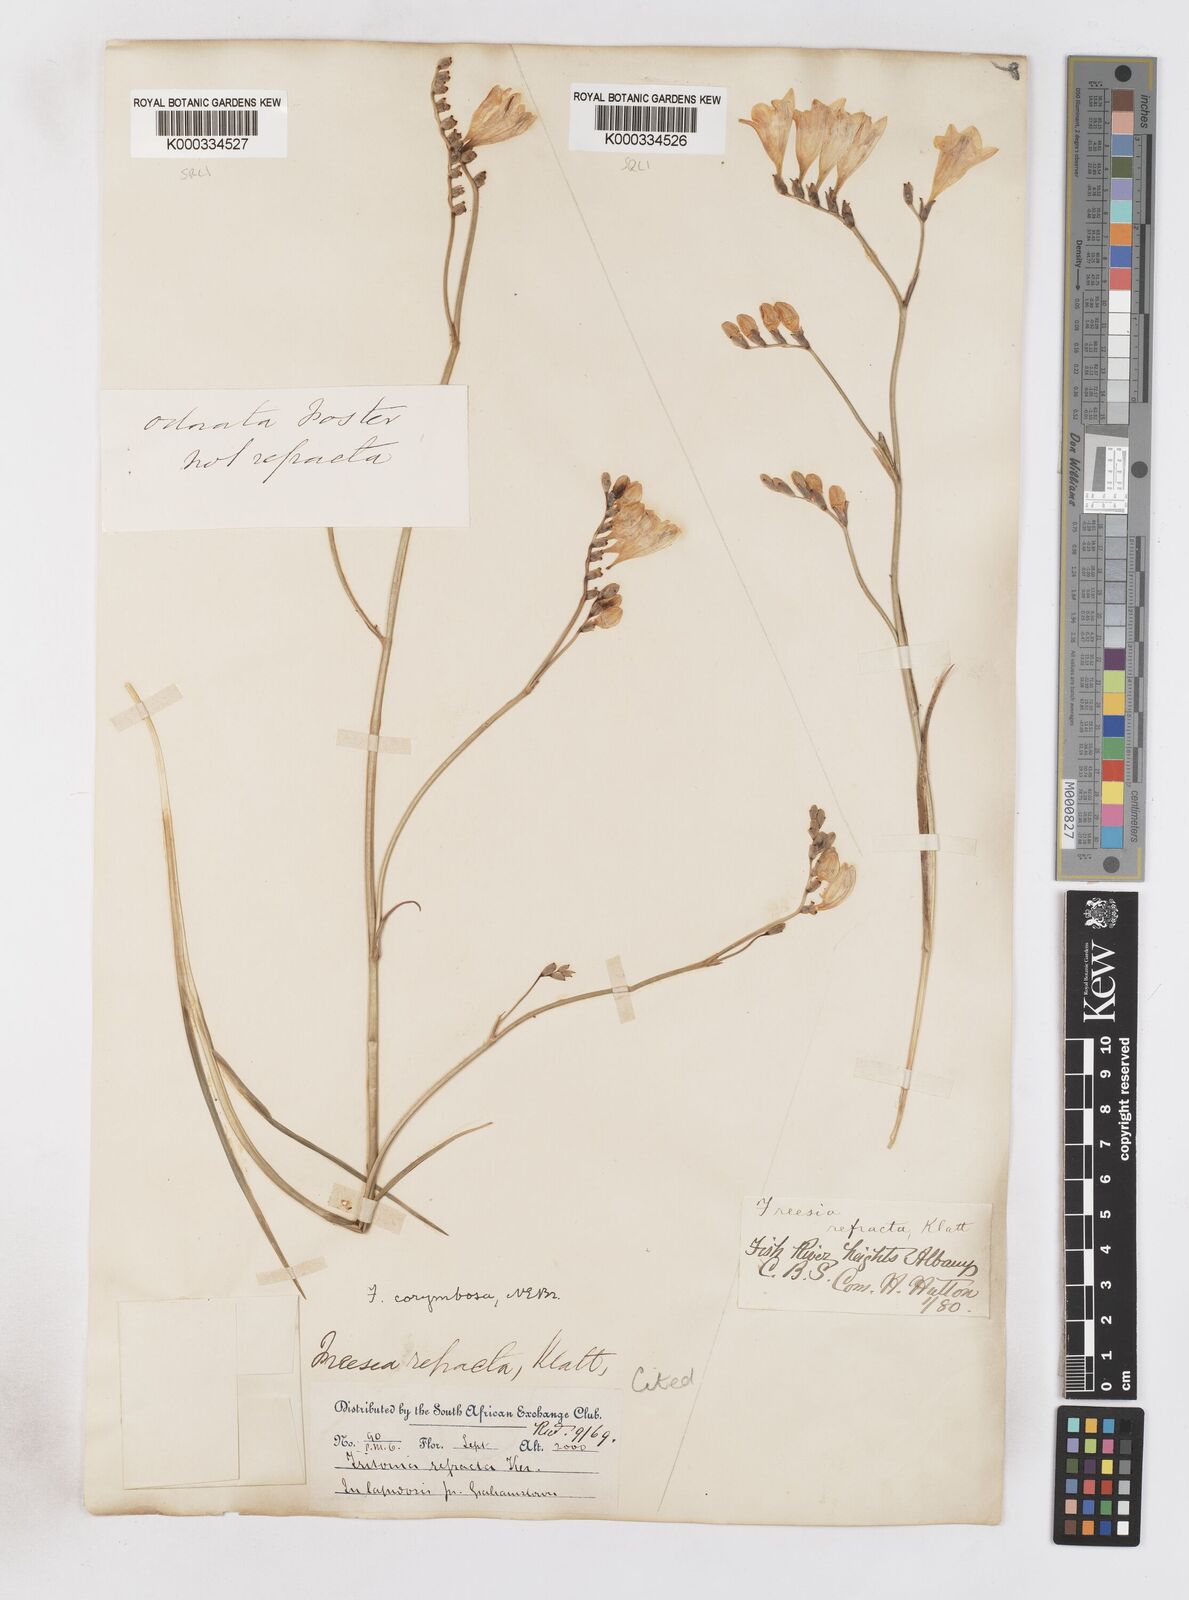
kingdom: Plantae
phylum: Tracheophyta
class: Liliopsida
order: Asparagales
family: Iridaceae
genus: Freesia
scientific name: Freesia corymbosa
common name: Common freesia
